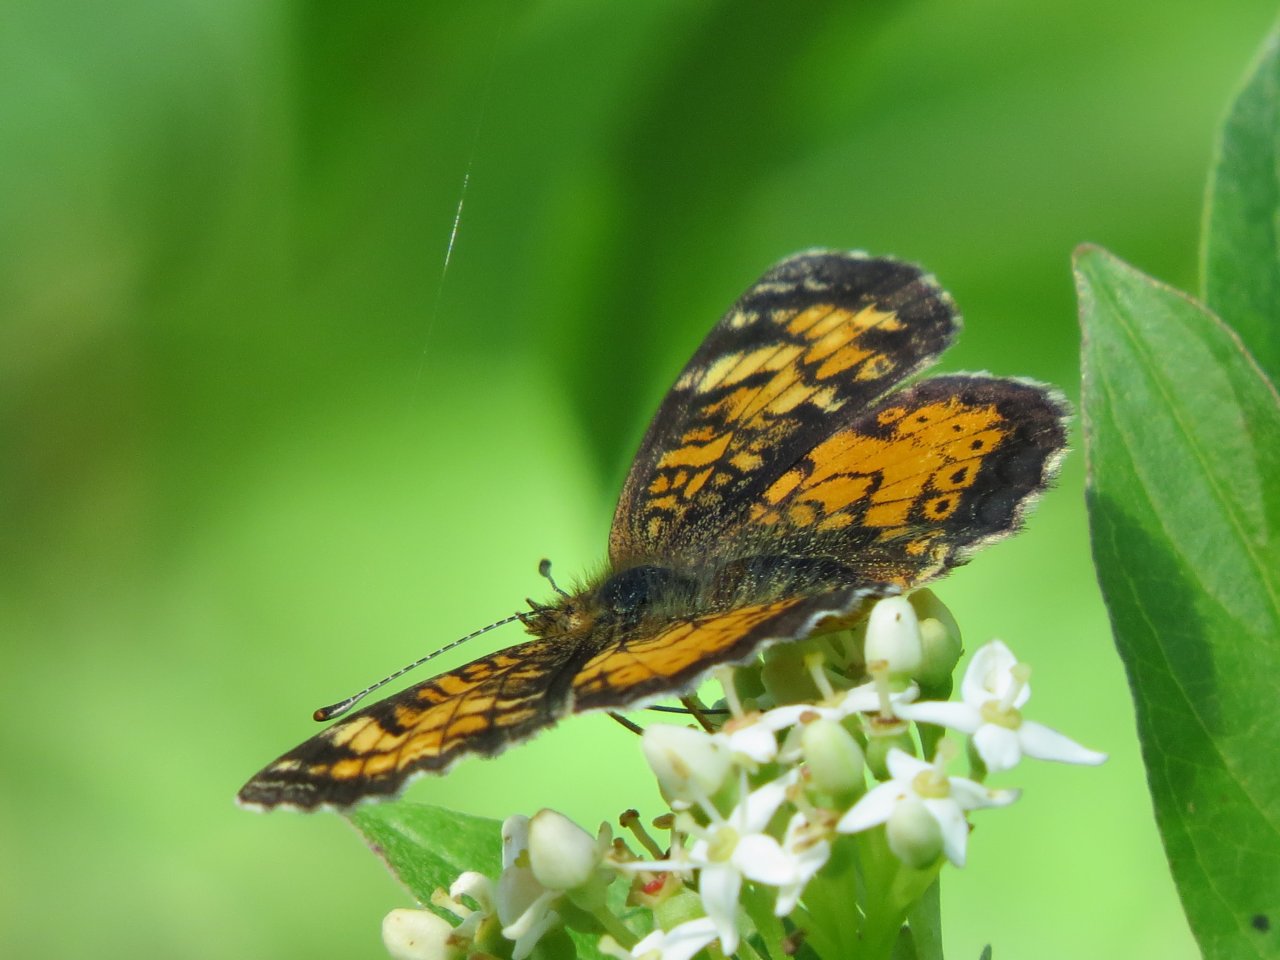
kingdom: Animalia
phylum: Arthropoda
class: Insecta
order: Lepidoptera
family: Nymphalidae
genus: Phyciodes
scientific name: Phyciodes tharos
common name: Northern Crescent
